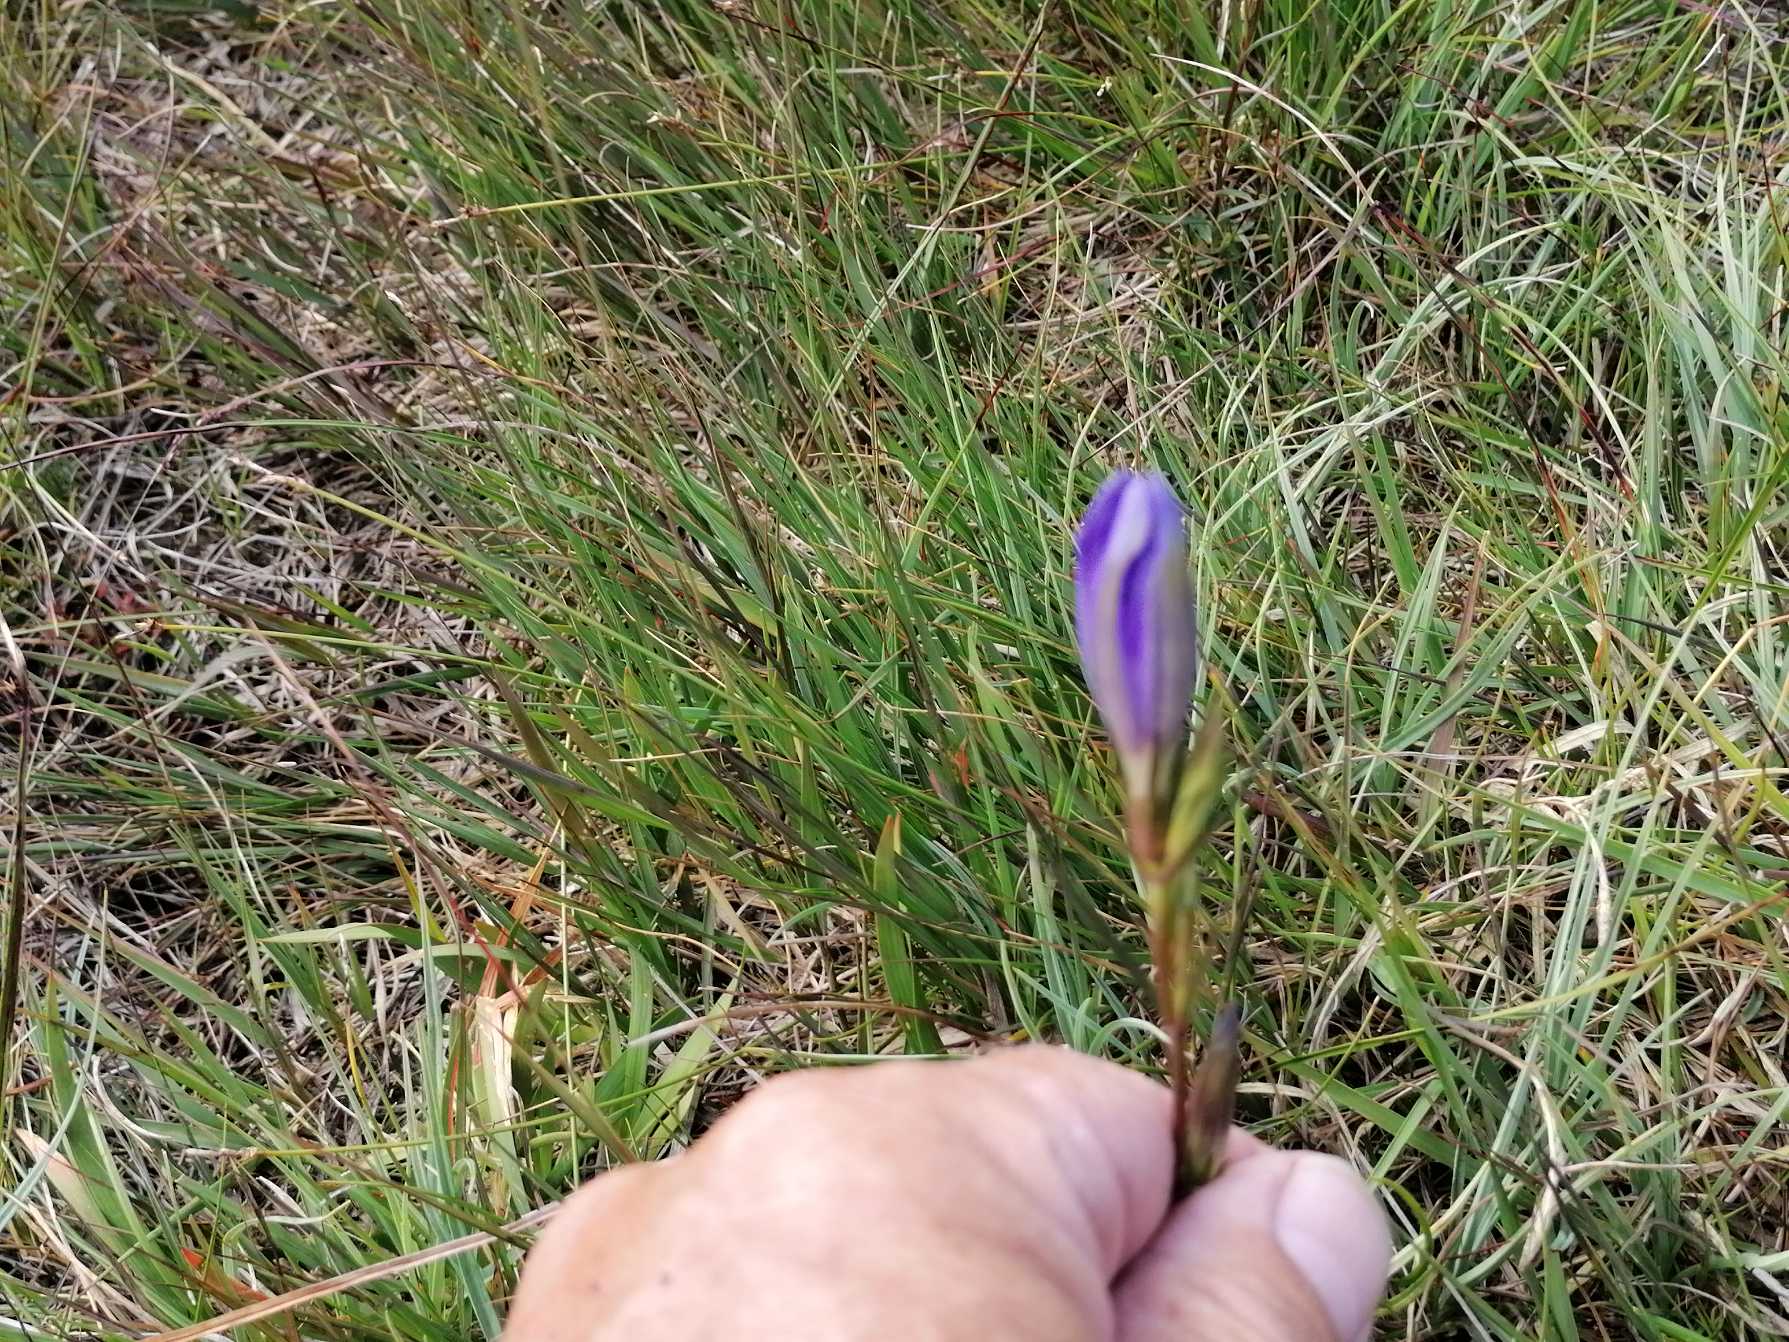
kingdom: Plantae
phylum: Tracheophyta
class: Magnoliopsida
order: Gentianales
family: Gentianaceae
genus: Gentiana
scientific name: Gentiana pneumonanthe
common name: Klokke-ensian
